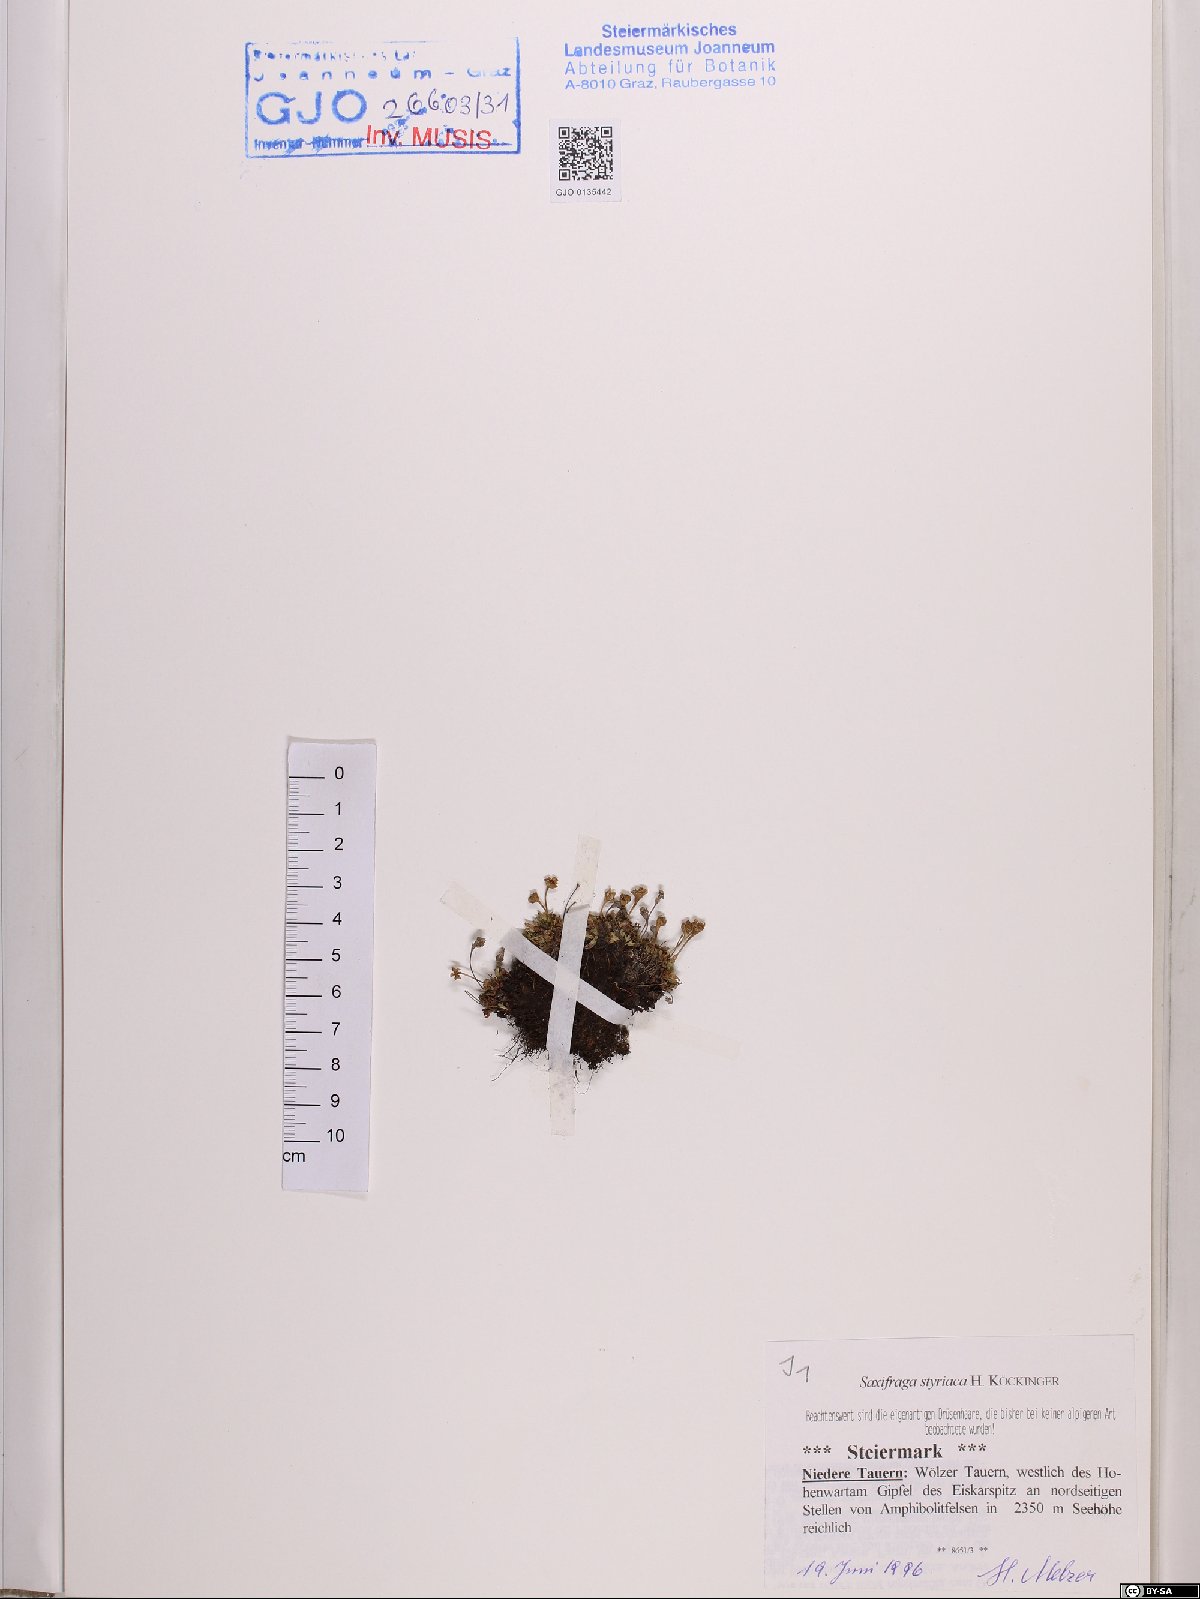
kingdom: Plantae
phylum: Tracheophyta
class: Magnoliopsida
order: Saxifragales
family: Saxifragaceae
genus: Saxifraga
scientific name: Saxifraga styriaca
